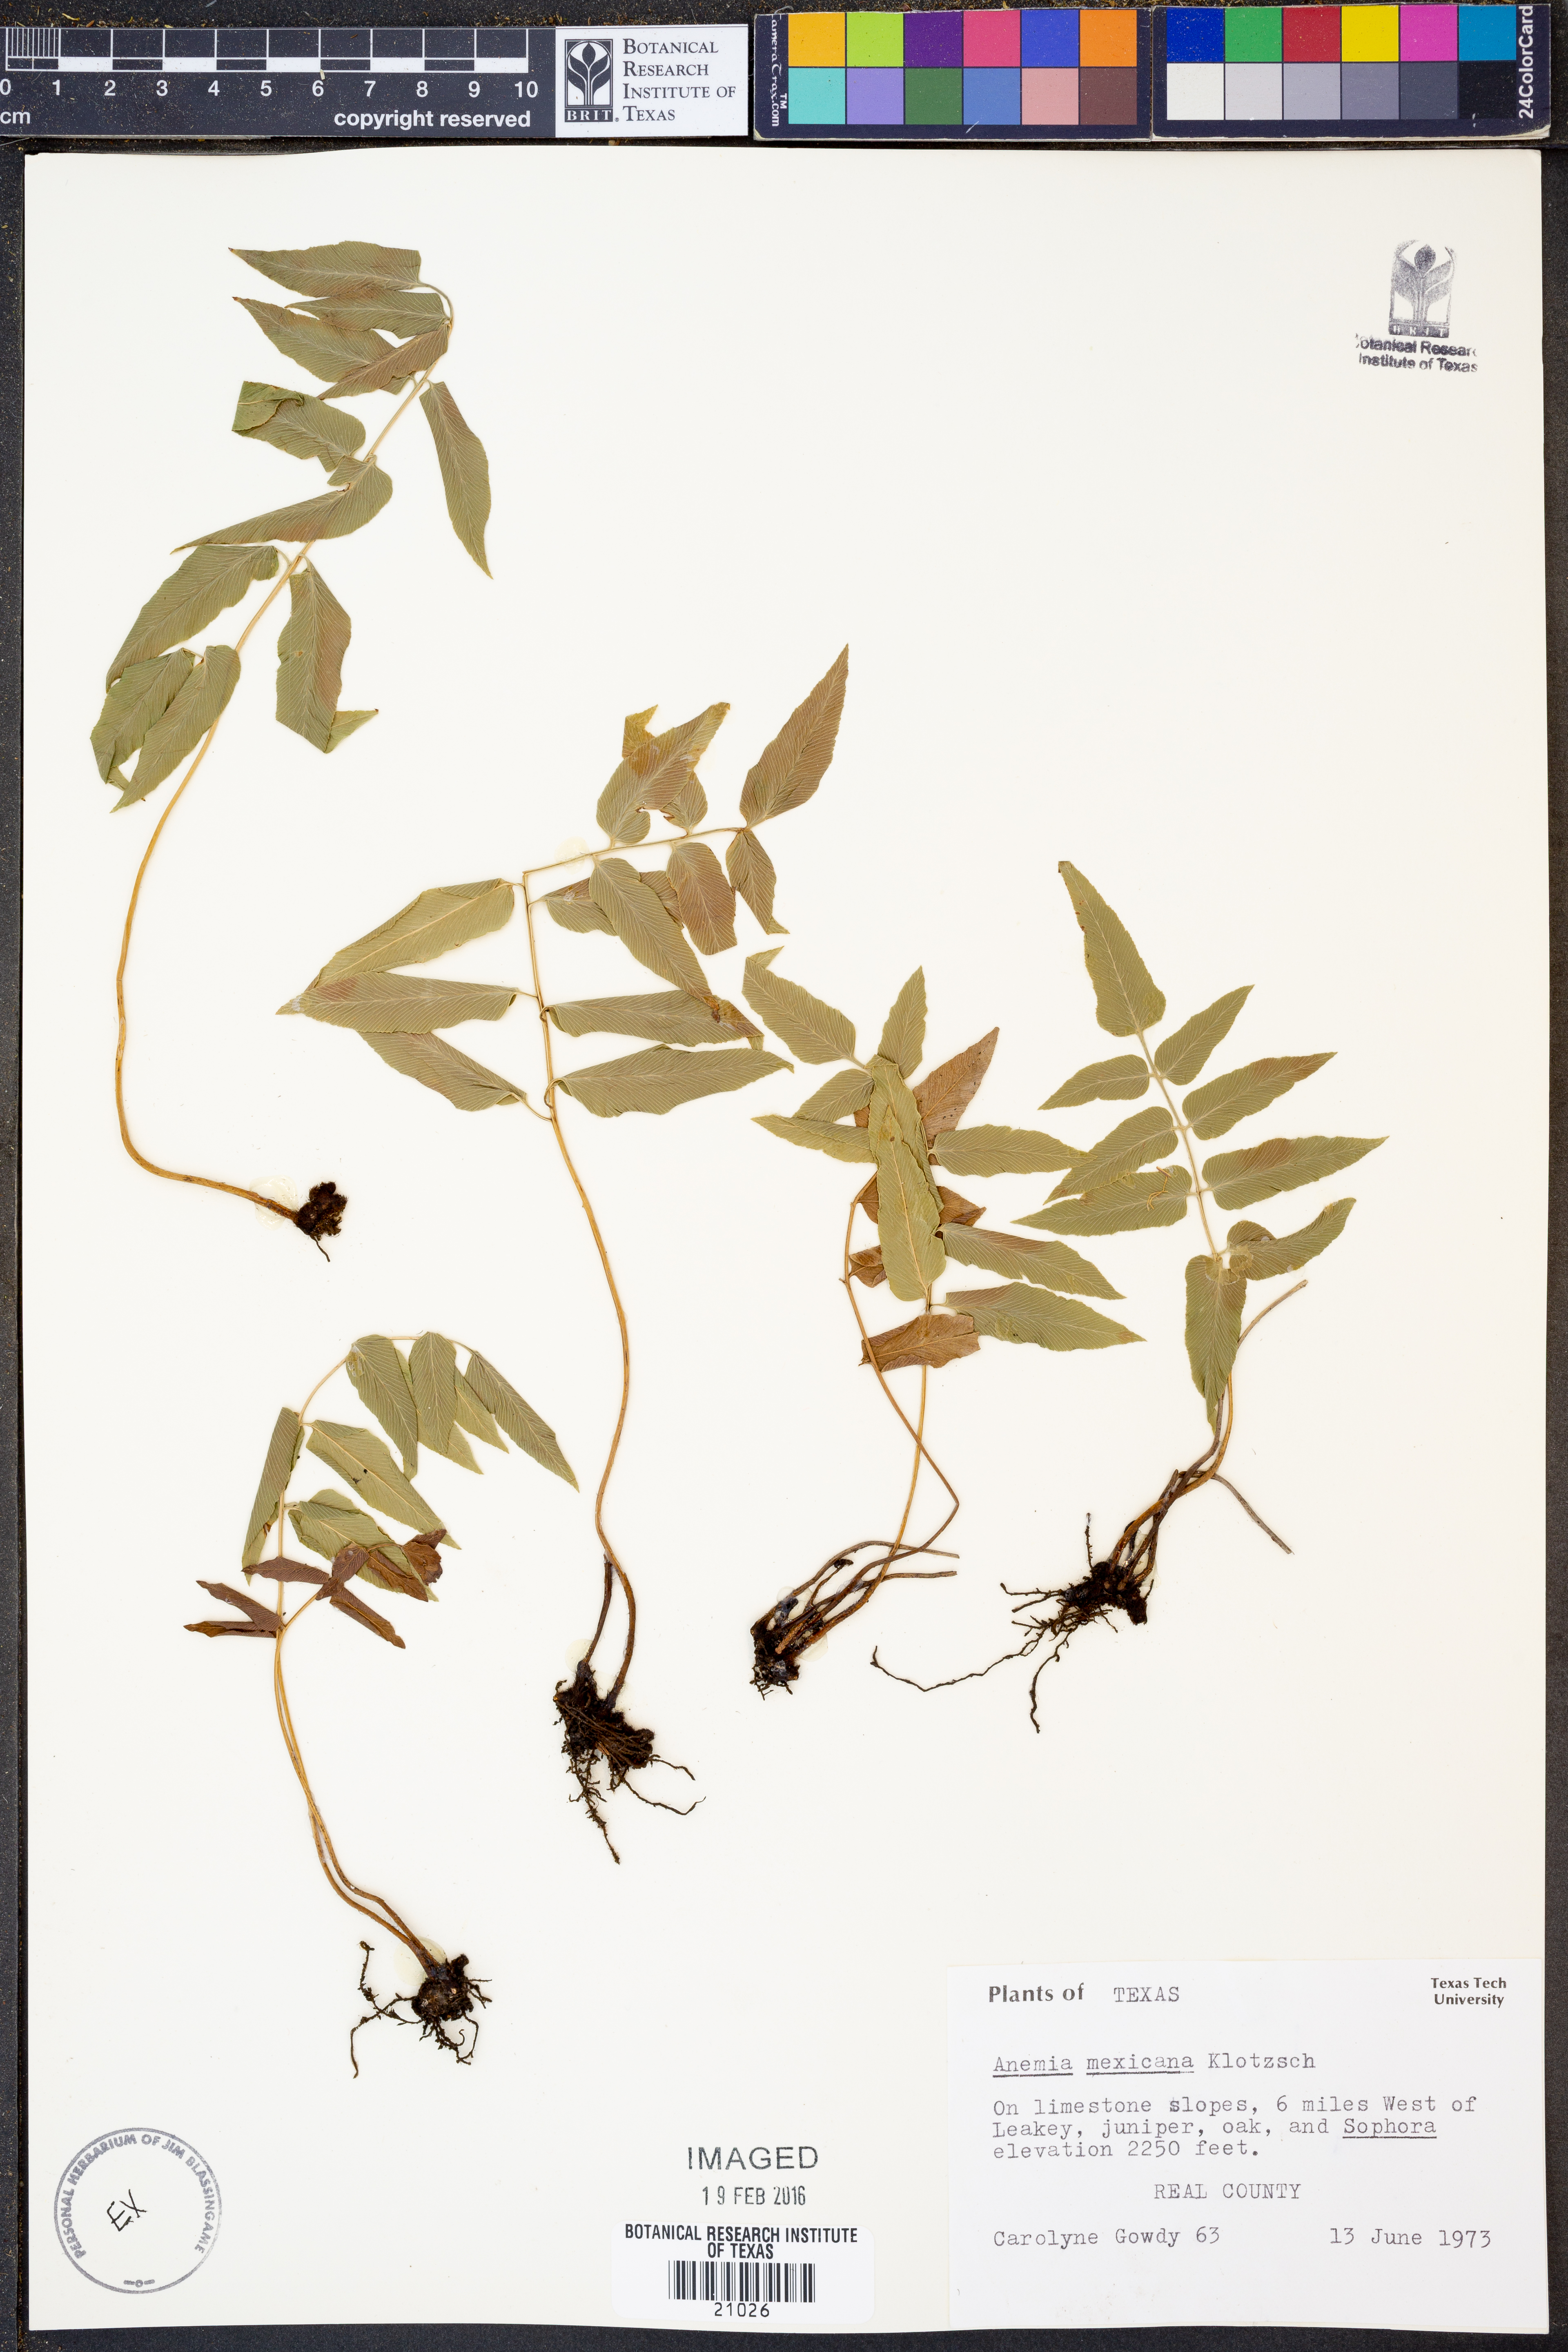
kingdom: Plantae
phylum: Tracheophyta
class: Polypodiopsida
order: Schizaeales
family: Anemiaceae
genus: Anemia
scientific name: Anemia mexicana
